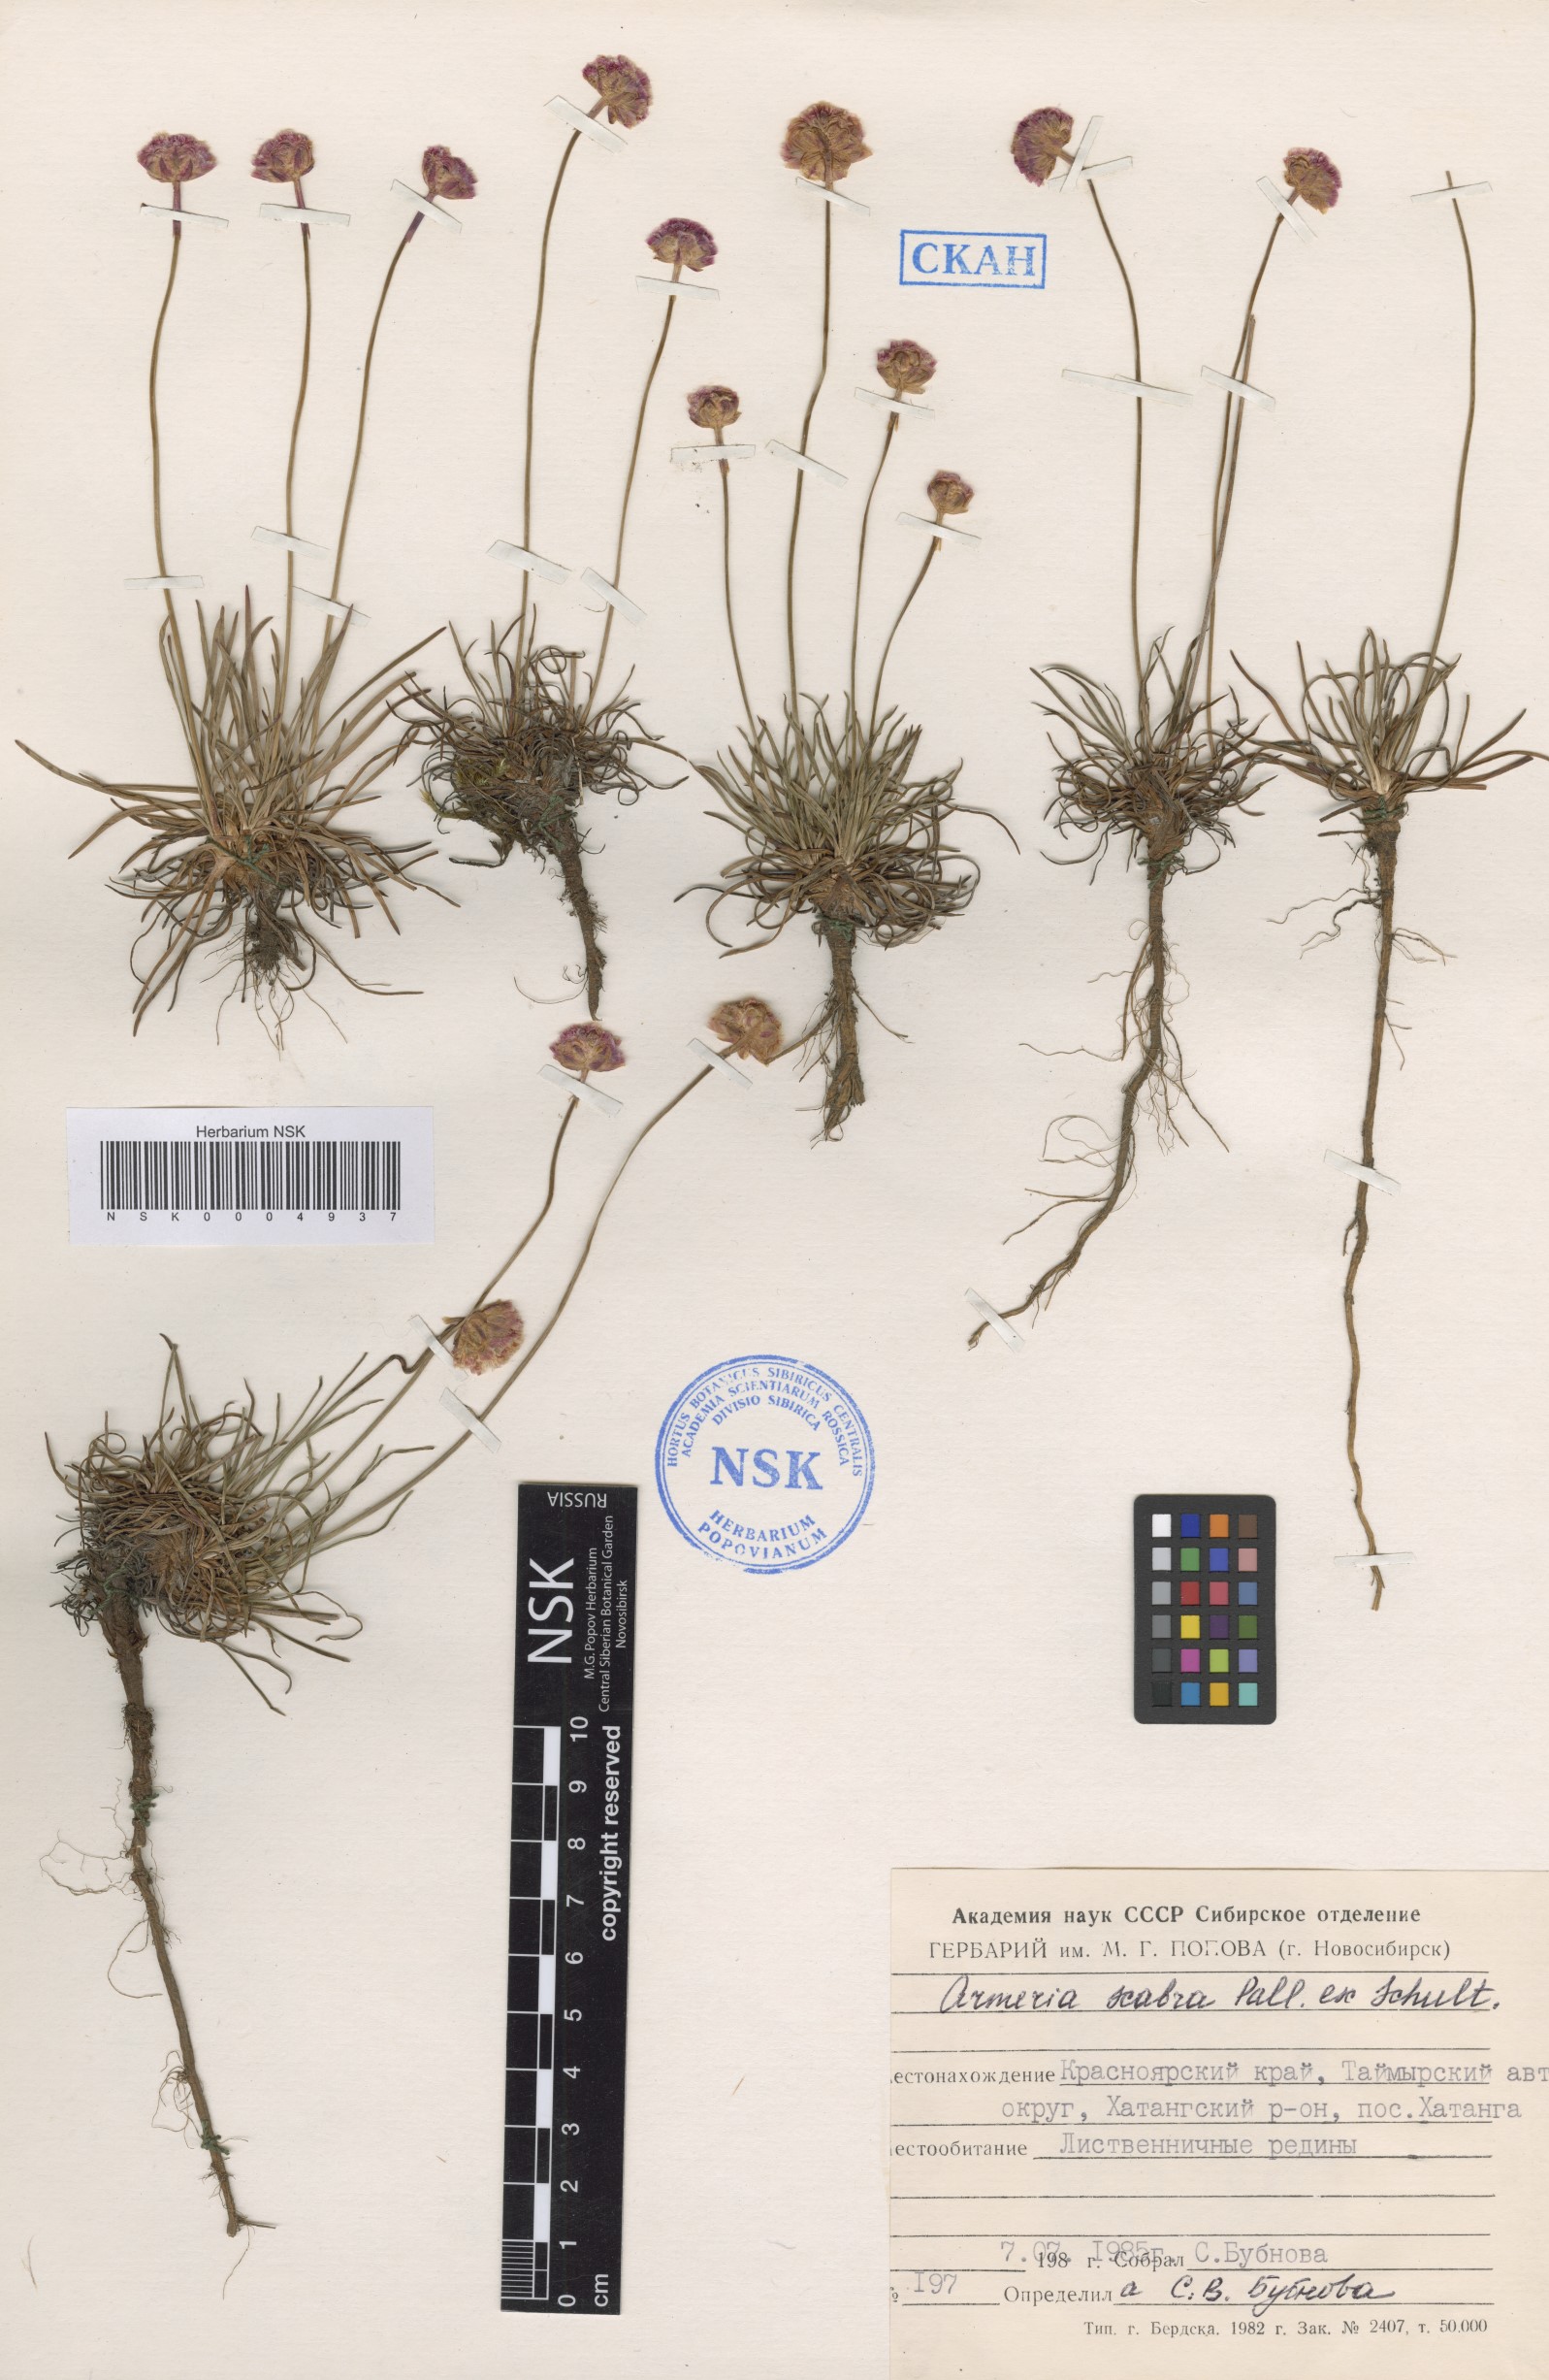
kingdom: Plantae
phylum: Tracheophyta
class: Magnoliopsida
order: Caryophyllales
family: Plumbaginaceae
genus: Armeria
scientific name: Armeria maritima
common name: Thrift
